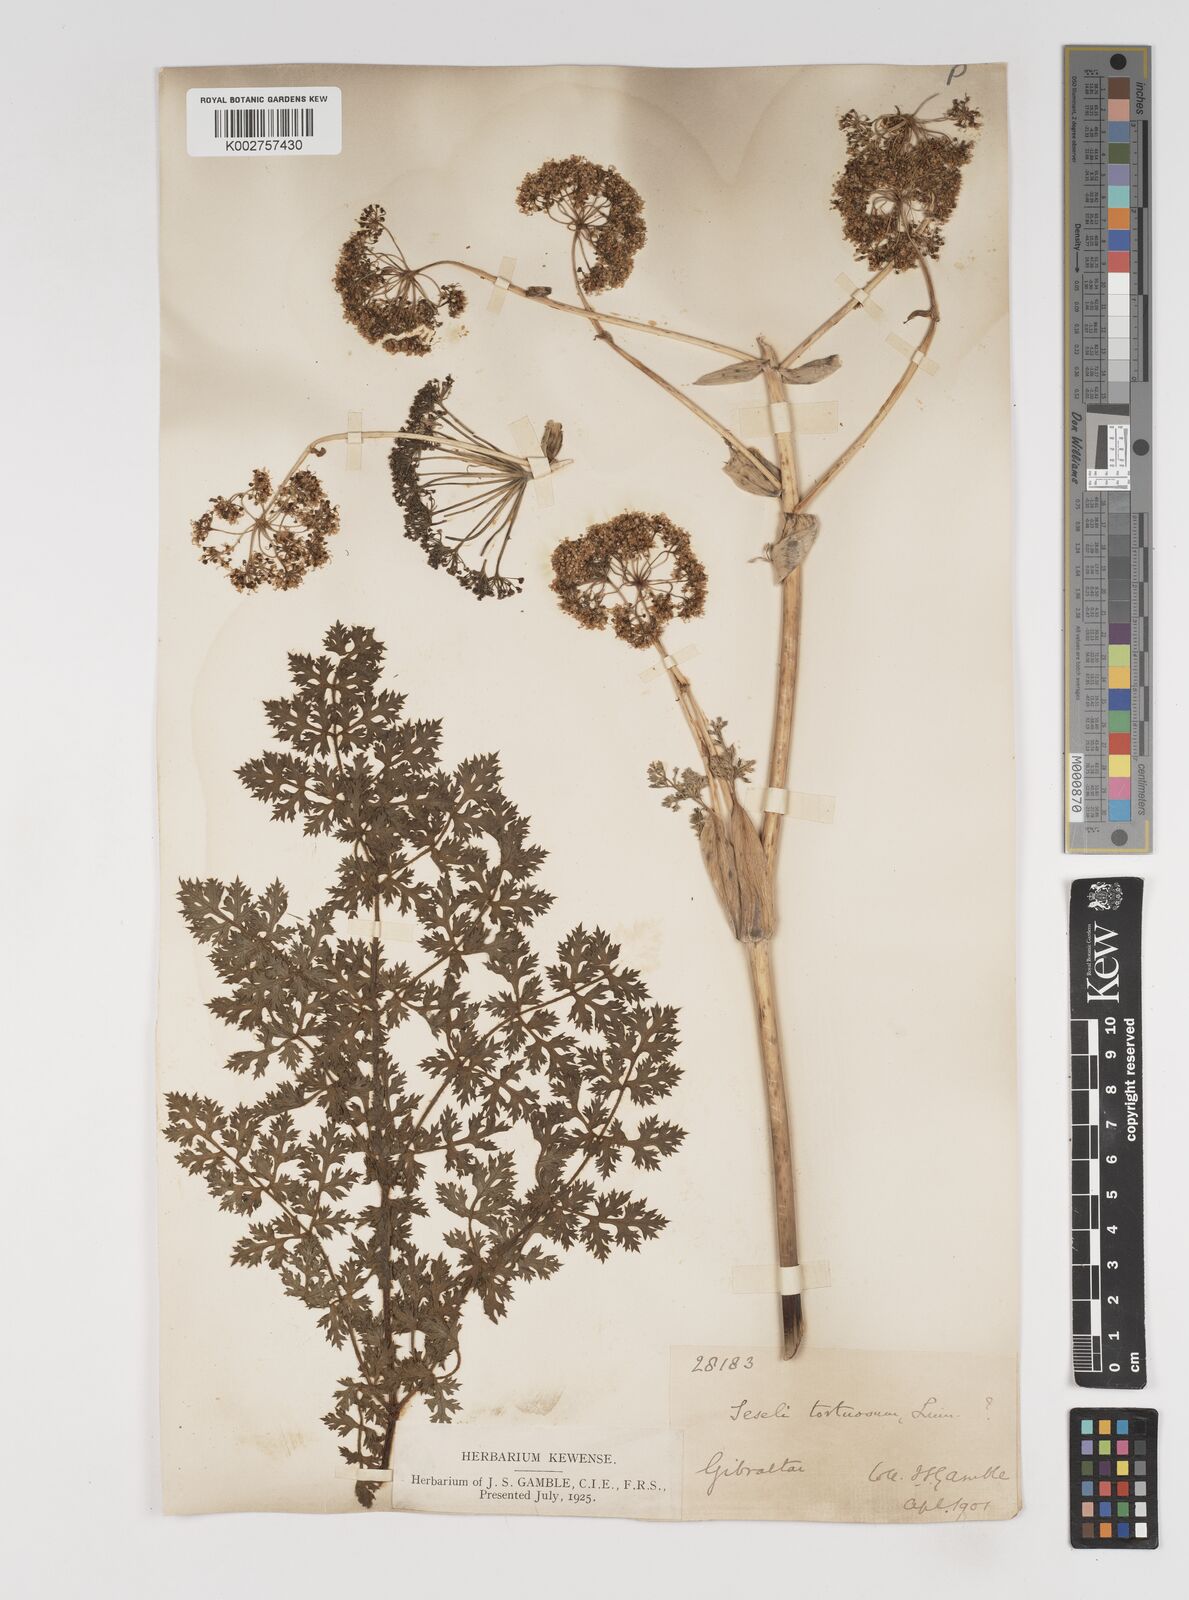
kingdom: Plantae
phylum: Tracheophyta
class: Magnoliopsida
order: Apiales
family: Apiaceae
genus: Seseli
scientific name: Seseli
